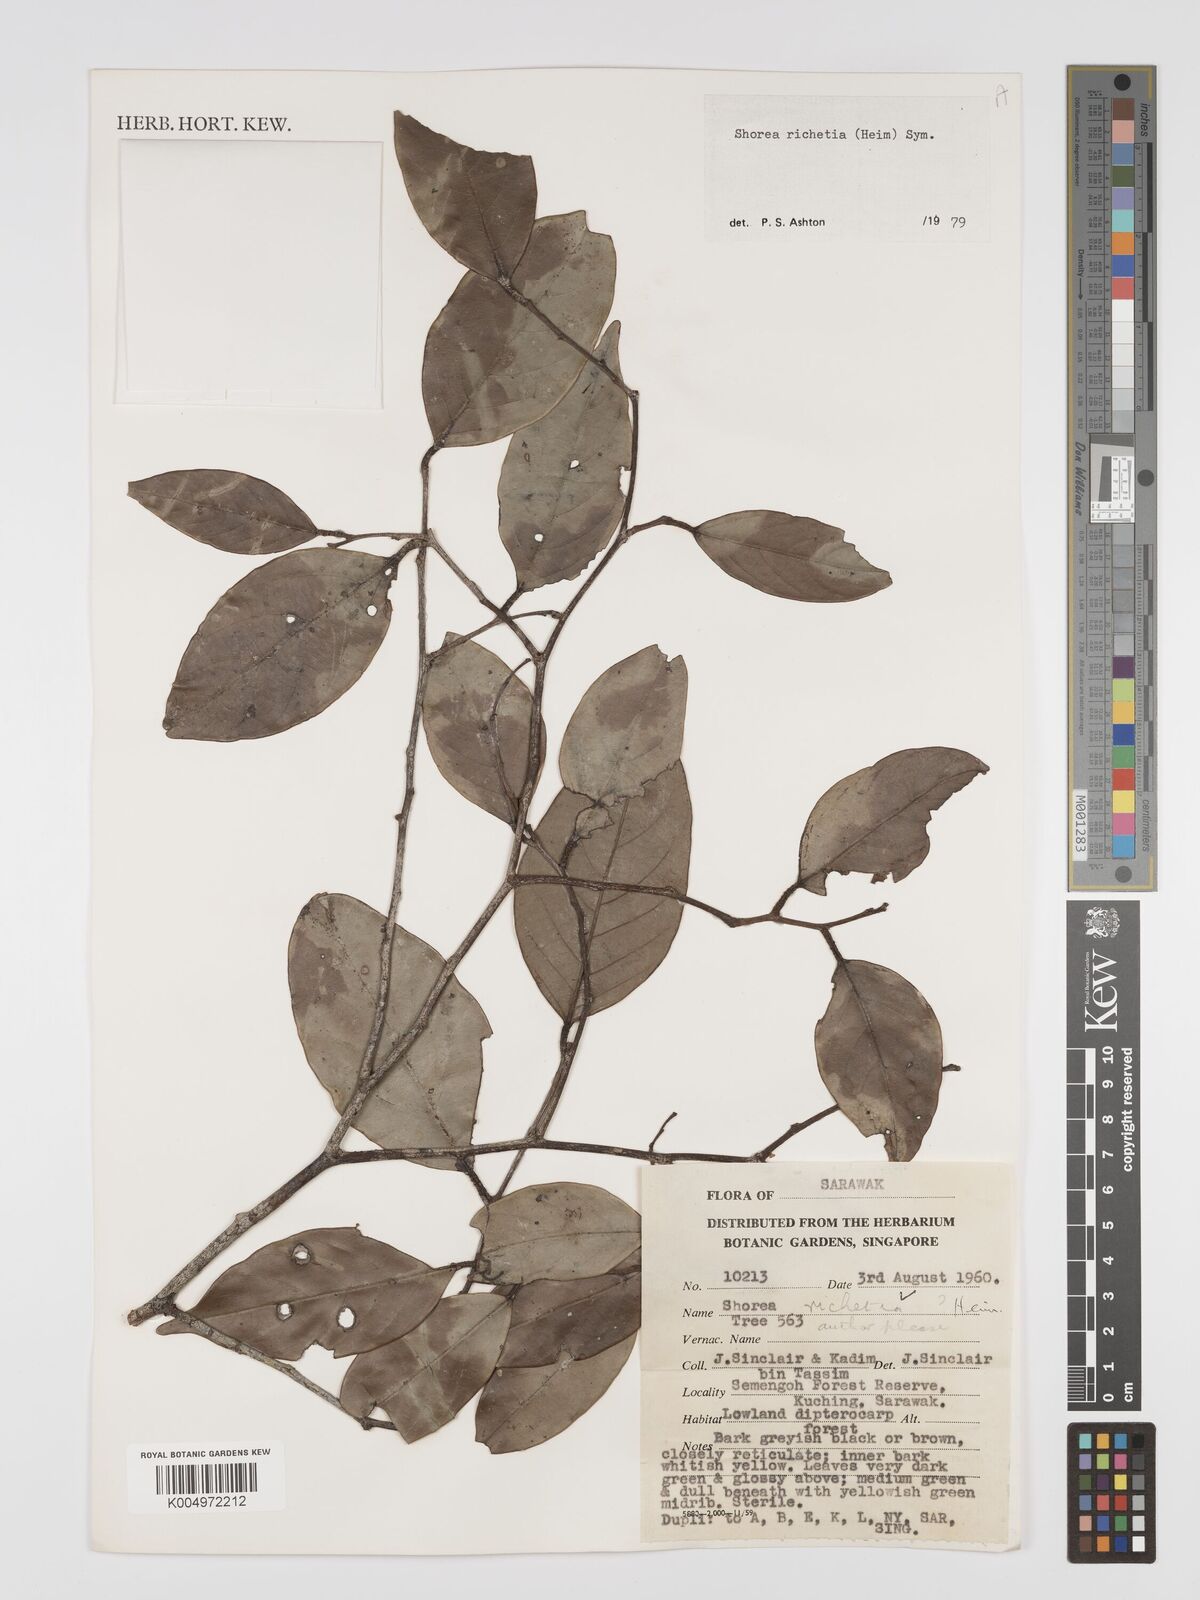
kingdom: Plantae
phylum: Tracheophyta
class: Magnoliopsida
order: Malvales
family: Dipterocarpaceae
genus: Shorea
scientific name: Shorea richetia
